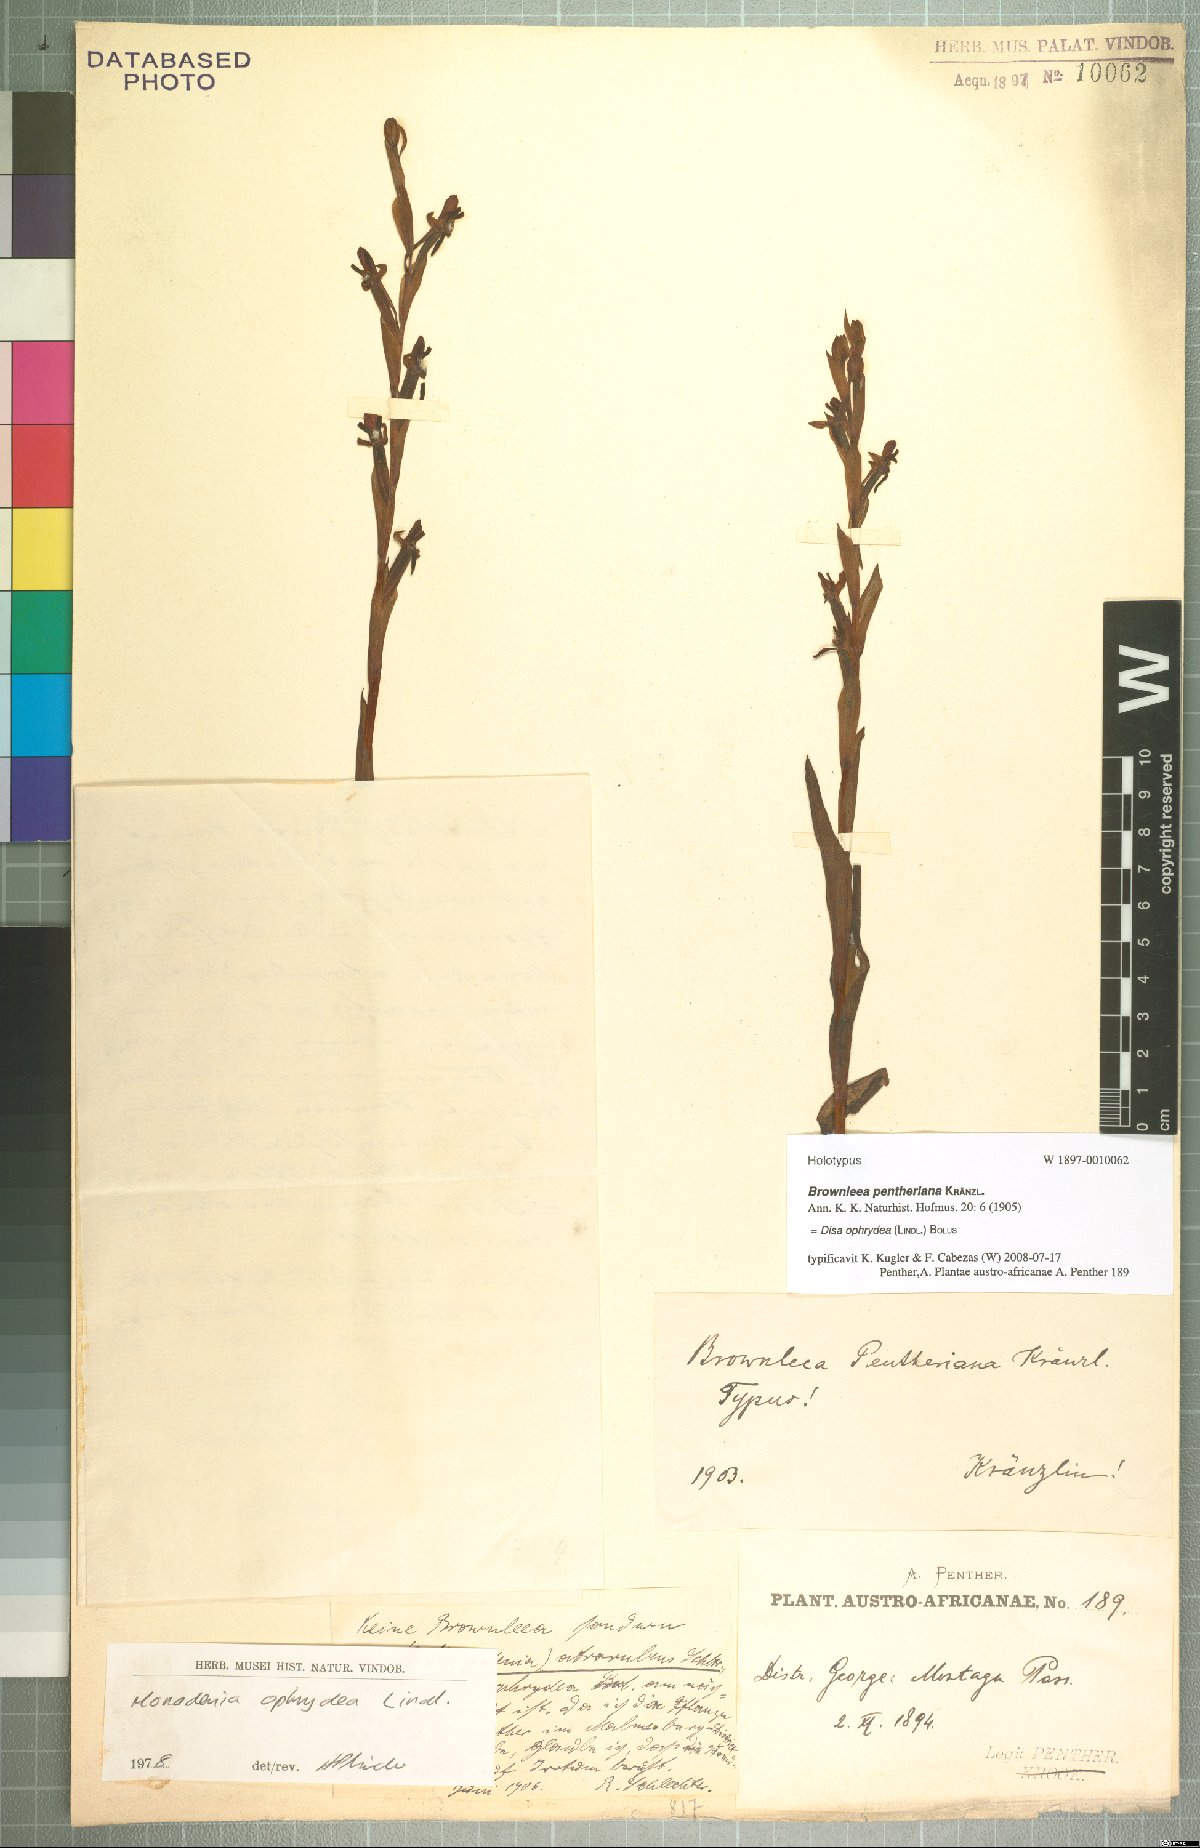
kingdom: Plantae
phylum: Tracheophyta
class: Liliopsida
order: Asparagales
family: Orchidaceae
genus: Disa
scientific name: Disa ophrydea
